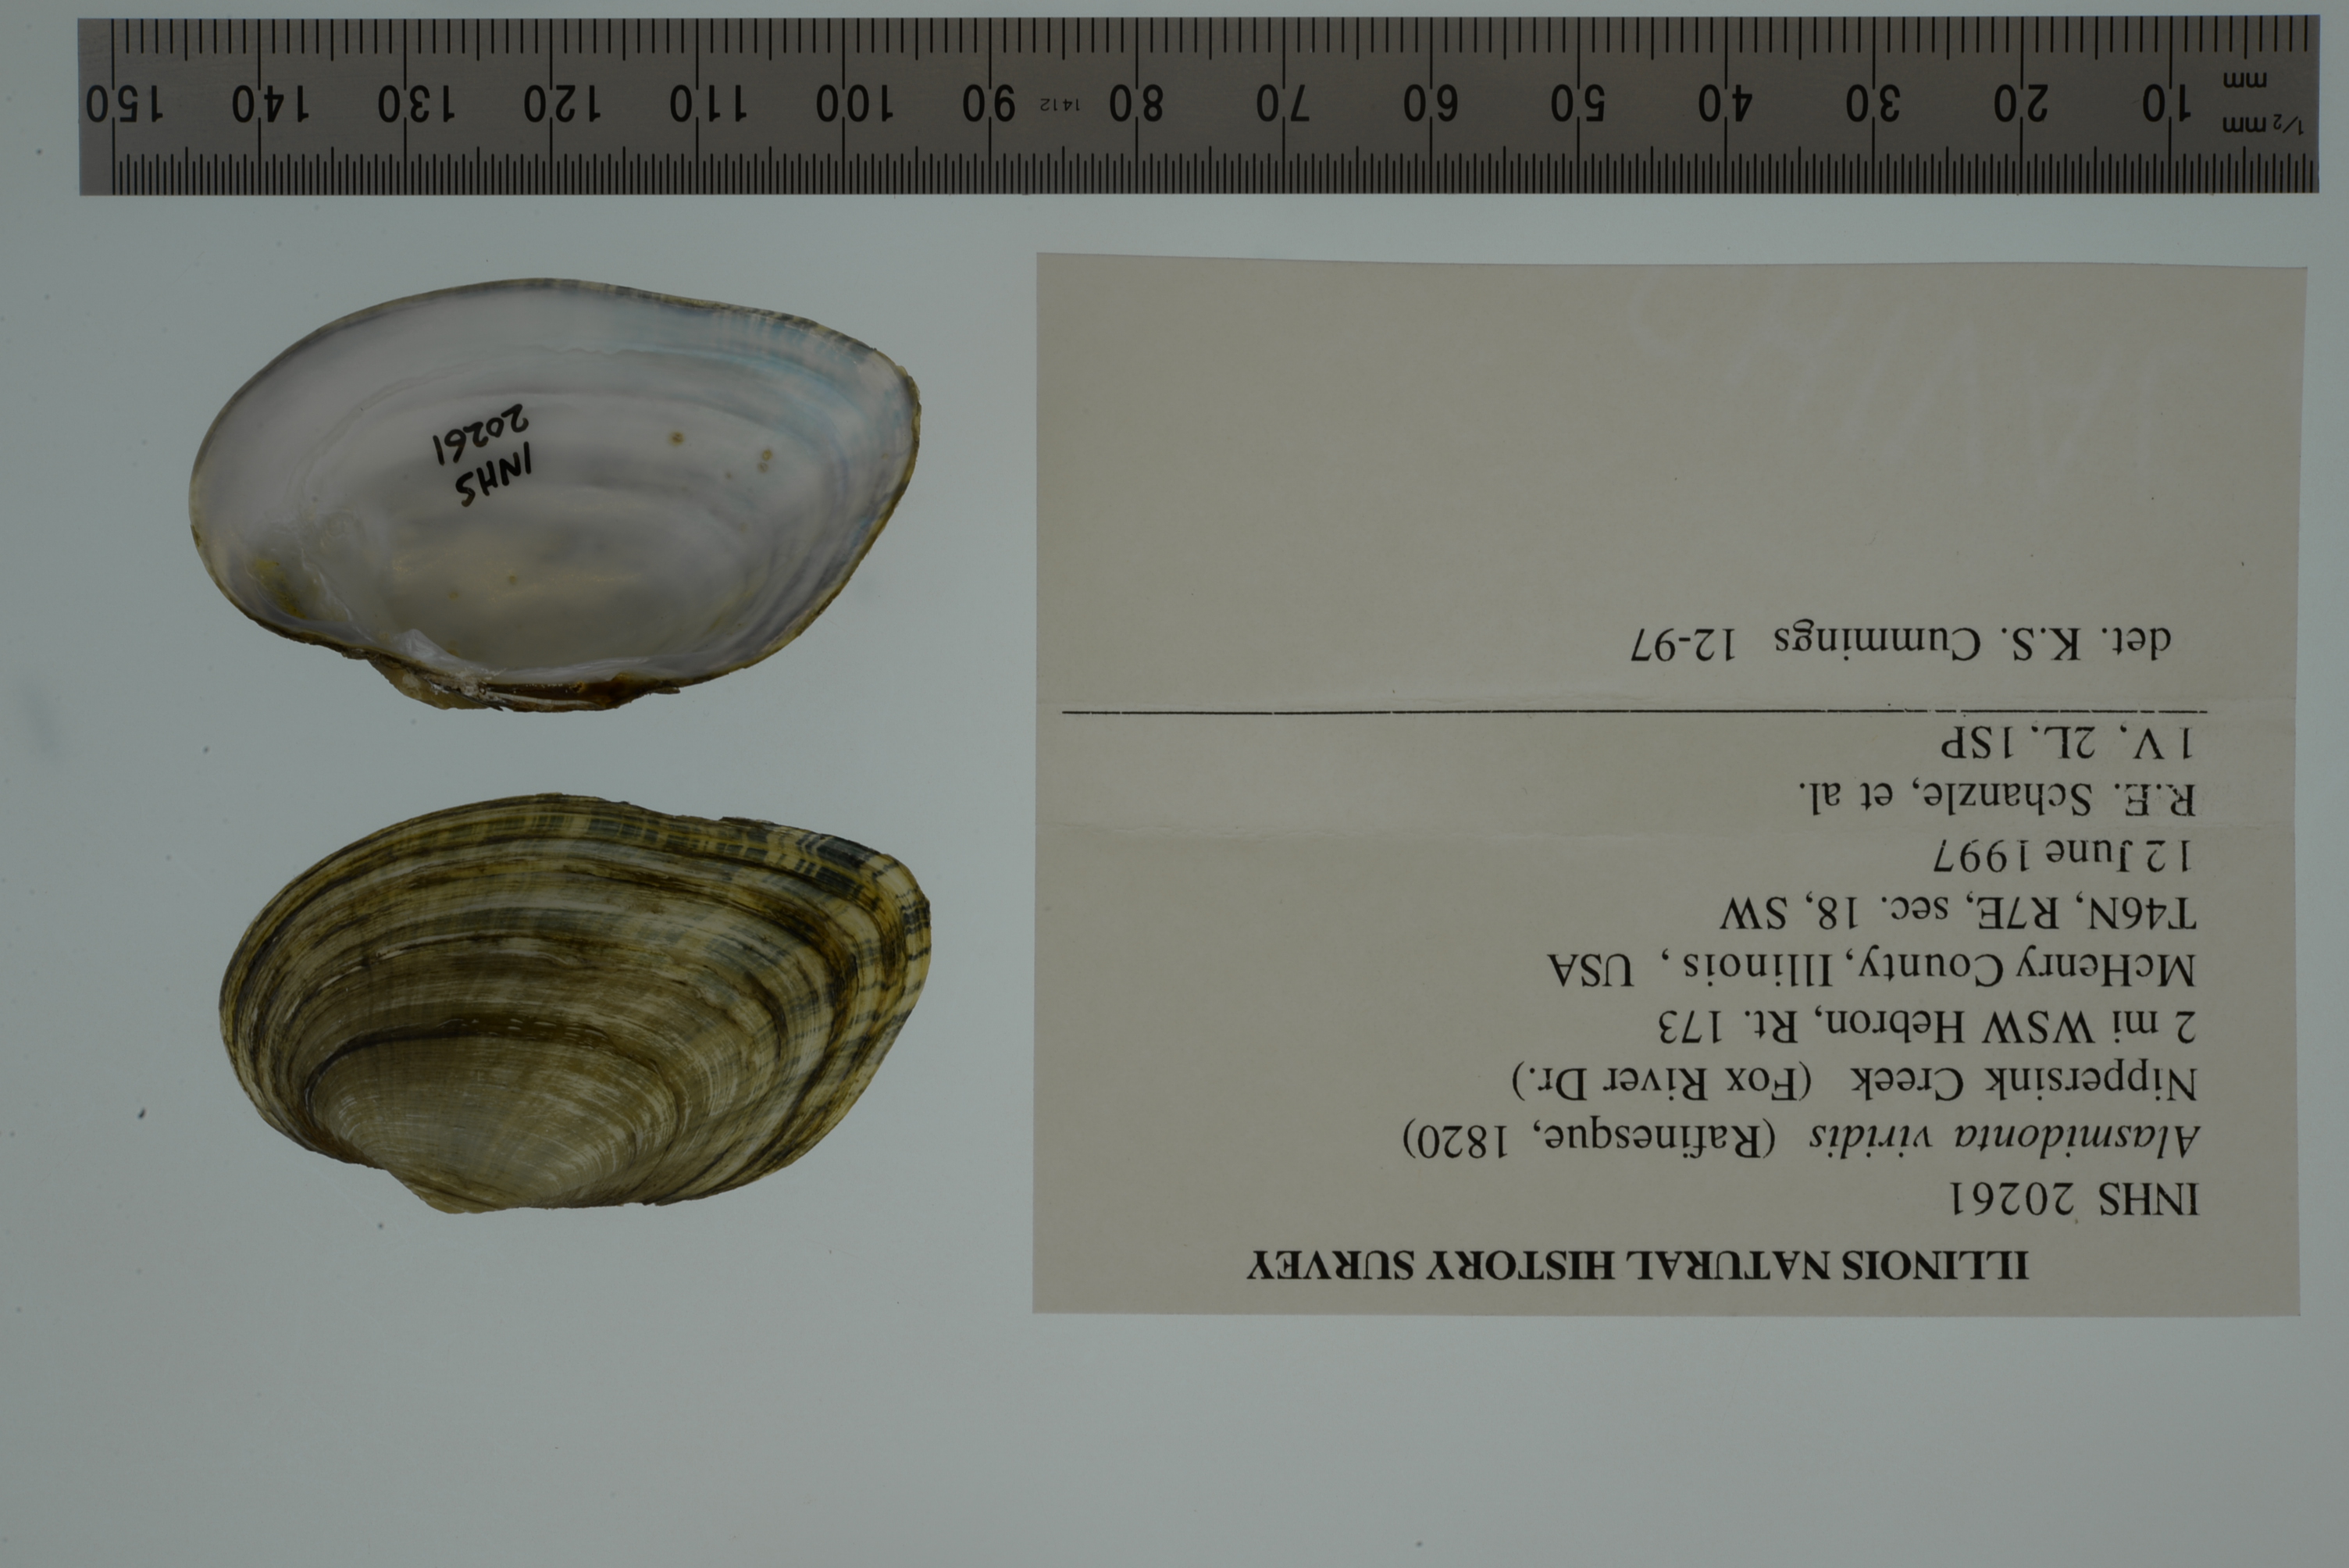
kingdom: Animalia
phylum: Mollusca
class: Bivalvia
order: Unionida
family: Unionidae
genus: Alasmidonta
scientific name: Alasmidonta viridis
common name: Slippershell mussel
